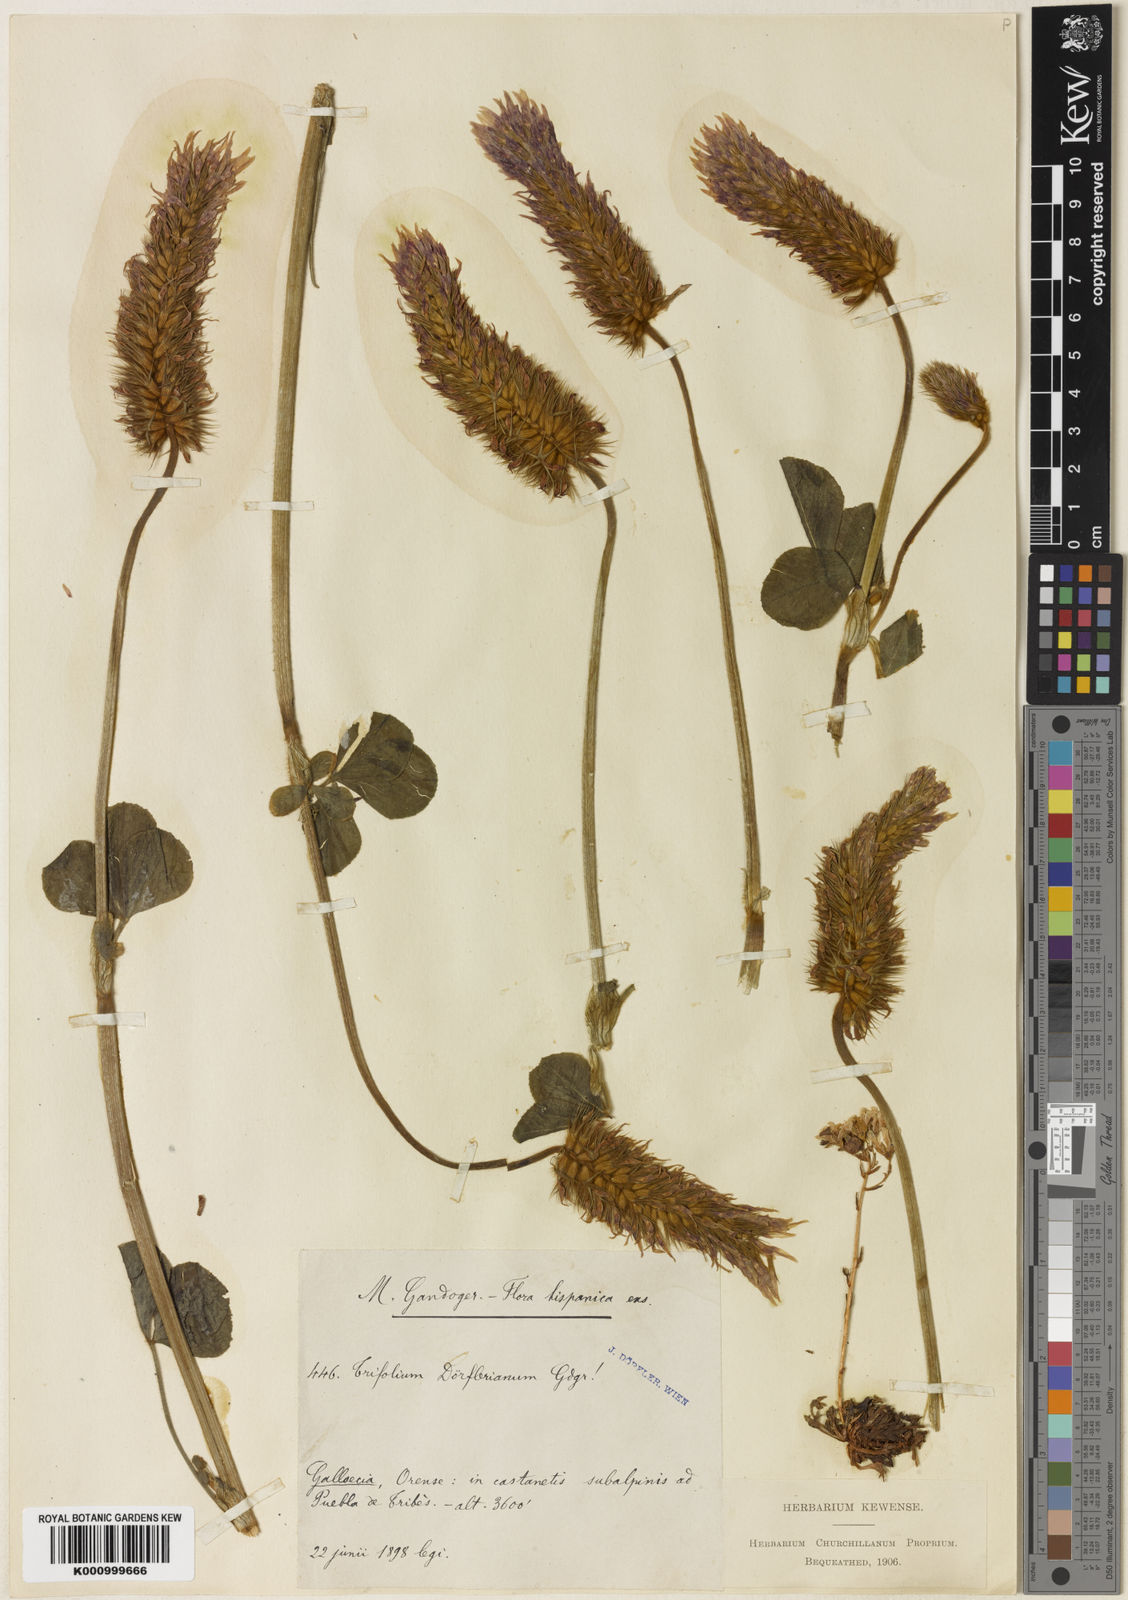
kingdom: Plantae
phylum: Tracheophyta
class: Magnoliopsida
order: Fabales
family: Fabaceae
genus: Trifolium
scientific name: Trifolium
